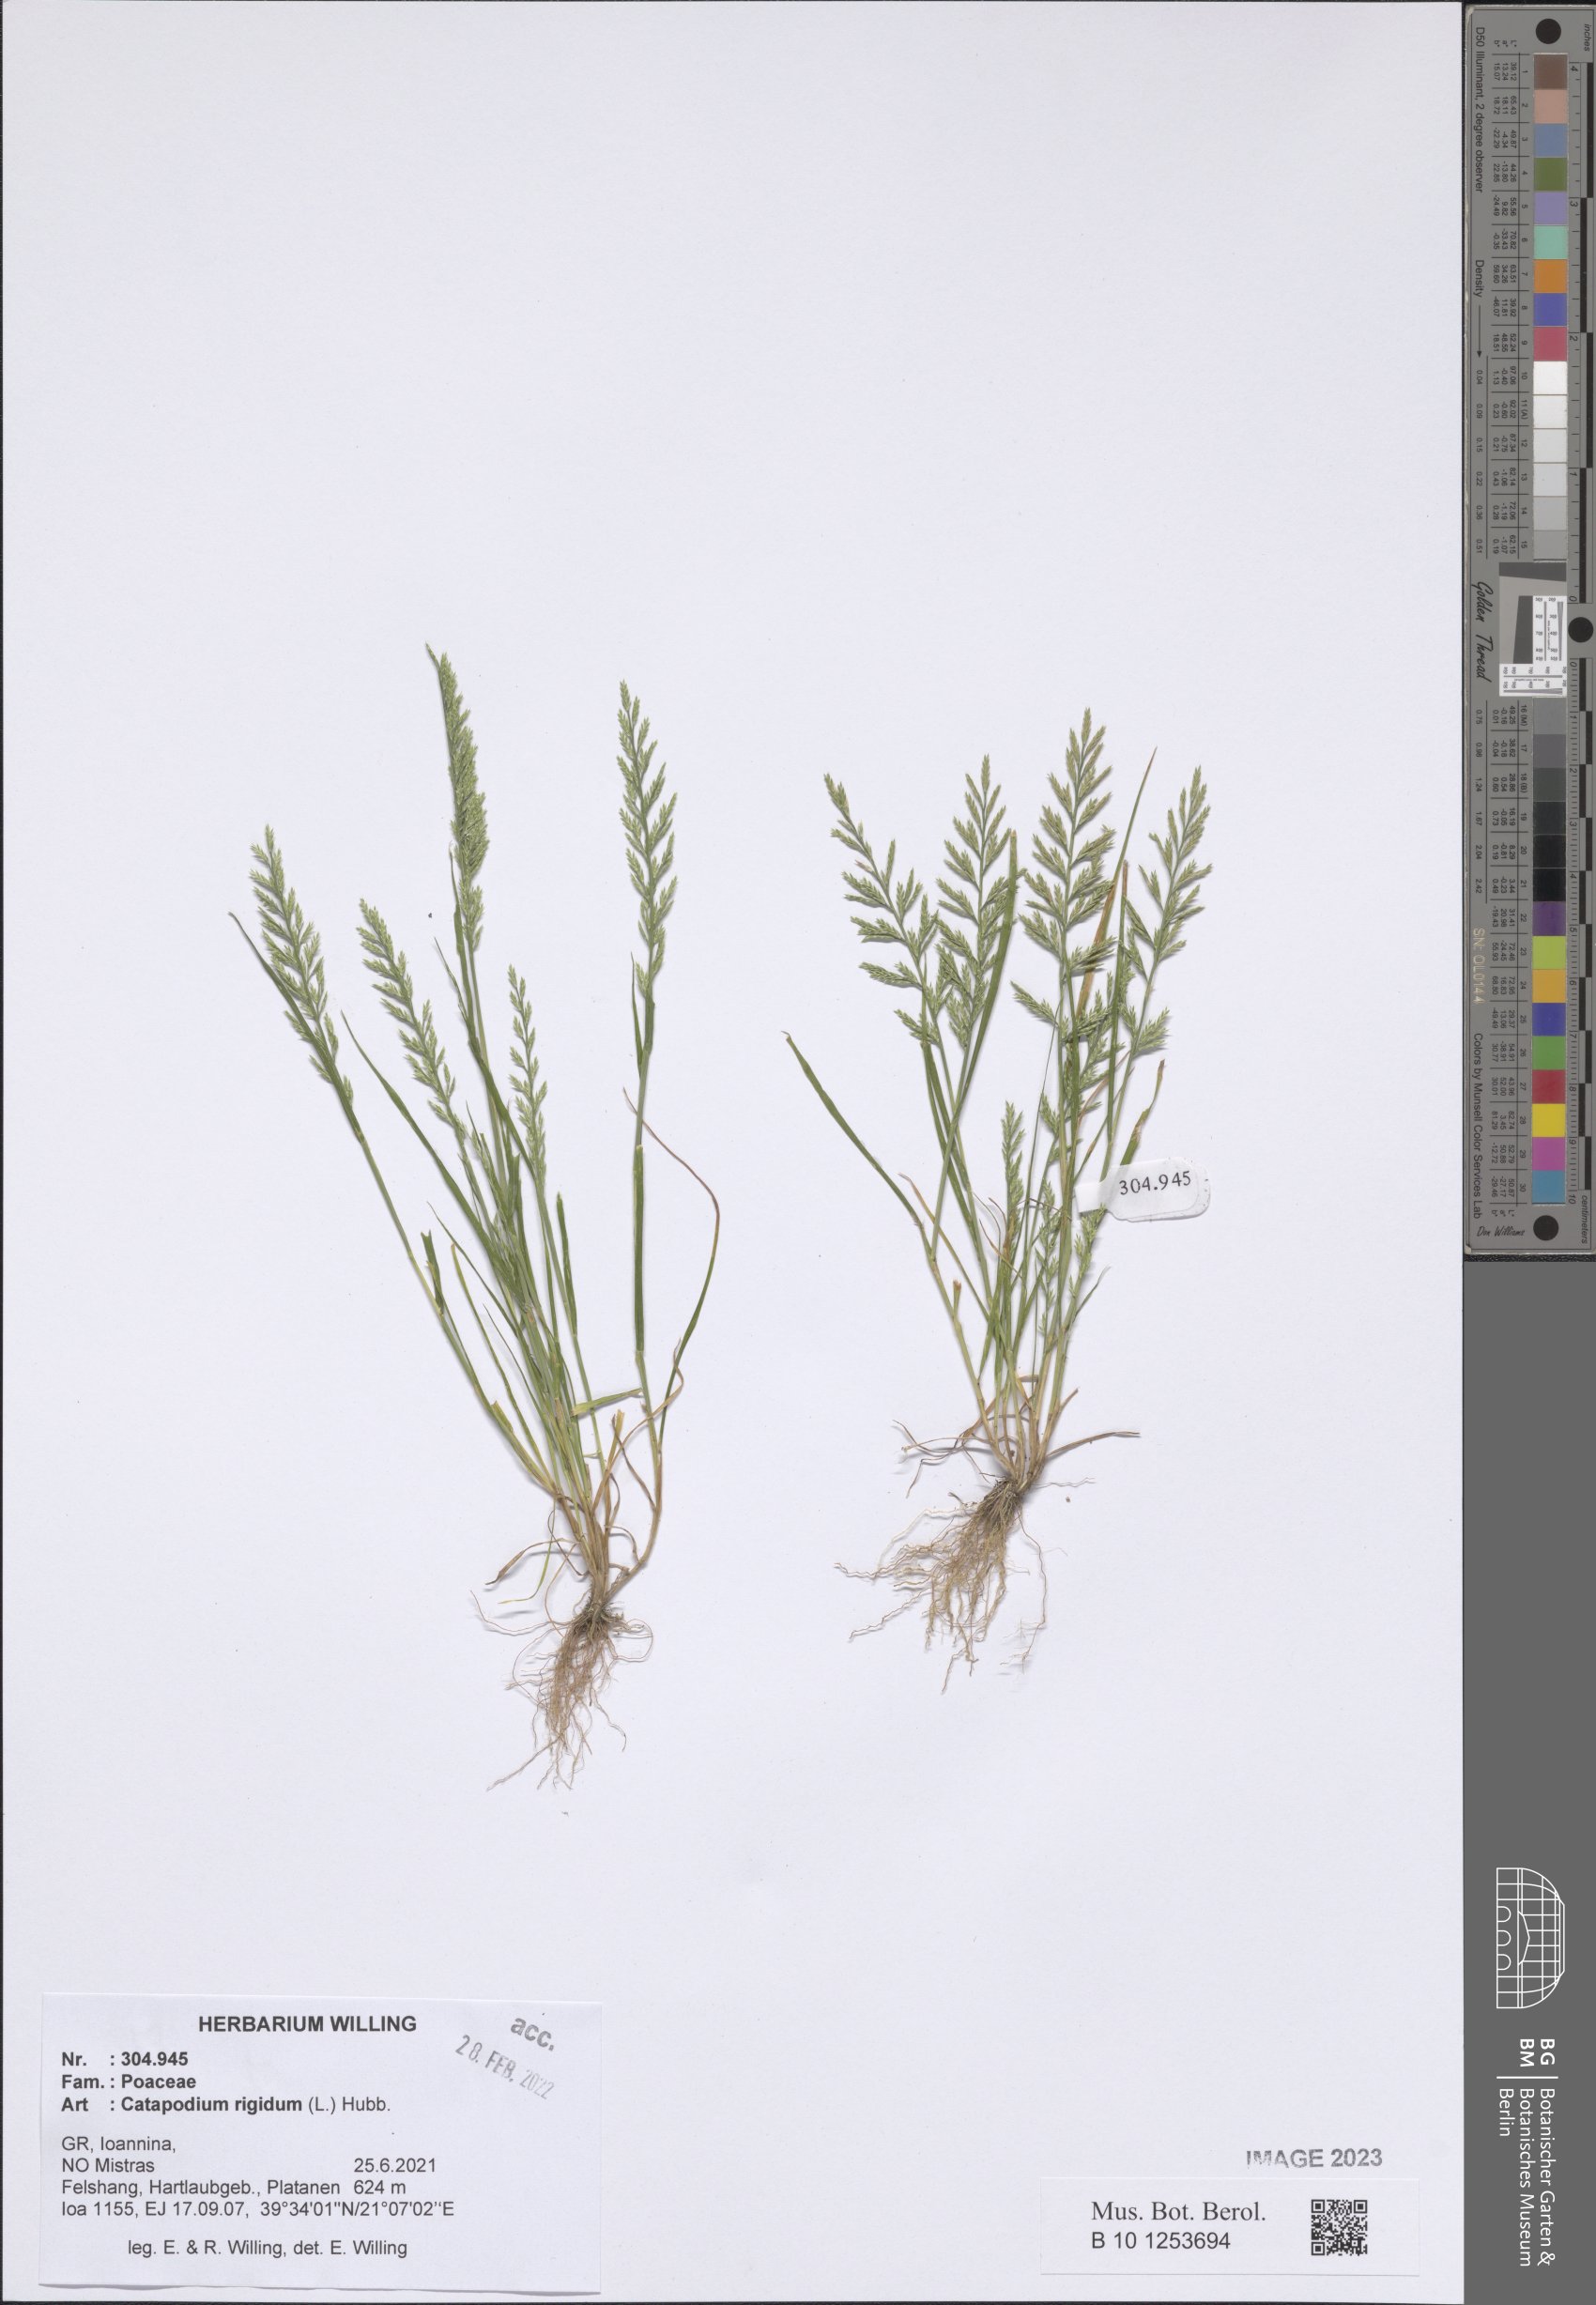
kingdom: Plantae
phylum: Tracheophyta
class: Liliopsida
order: Poales
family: Poaceae
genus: Catapodium
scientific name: Catapodium rigidum
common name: Fern-grass
